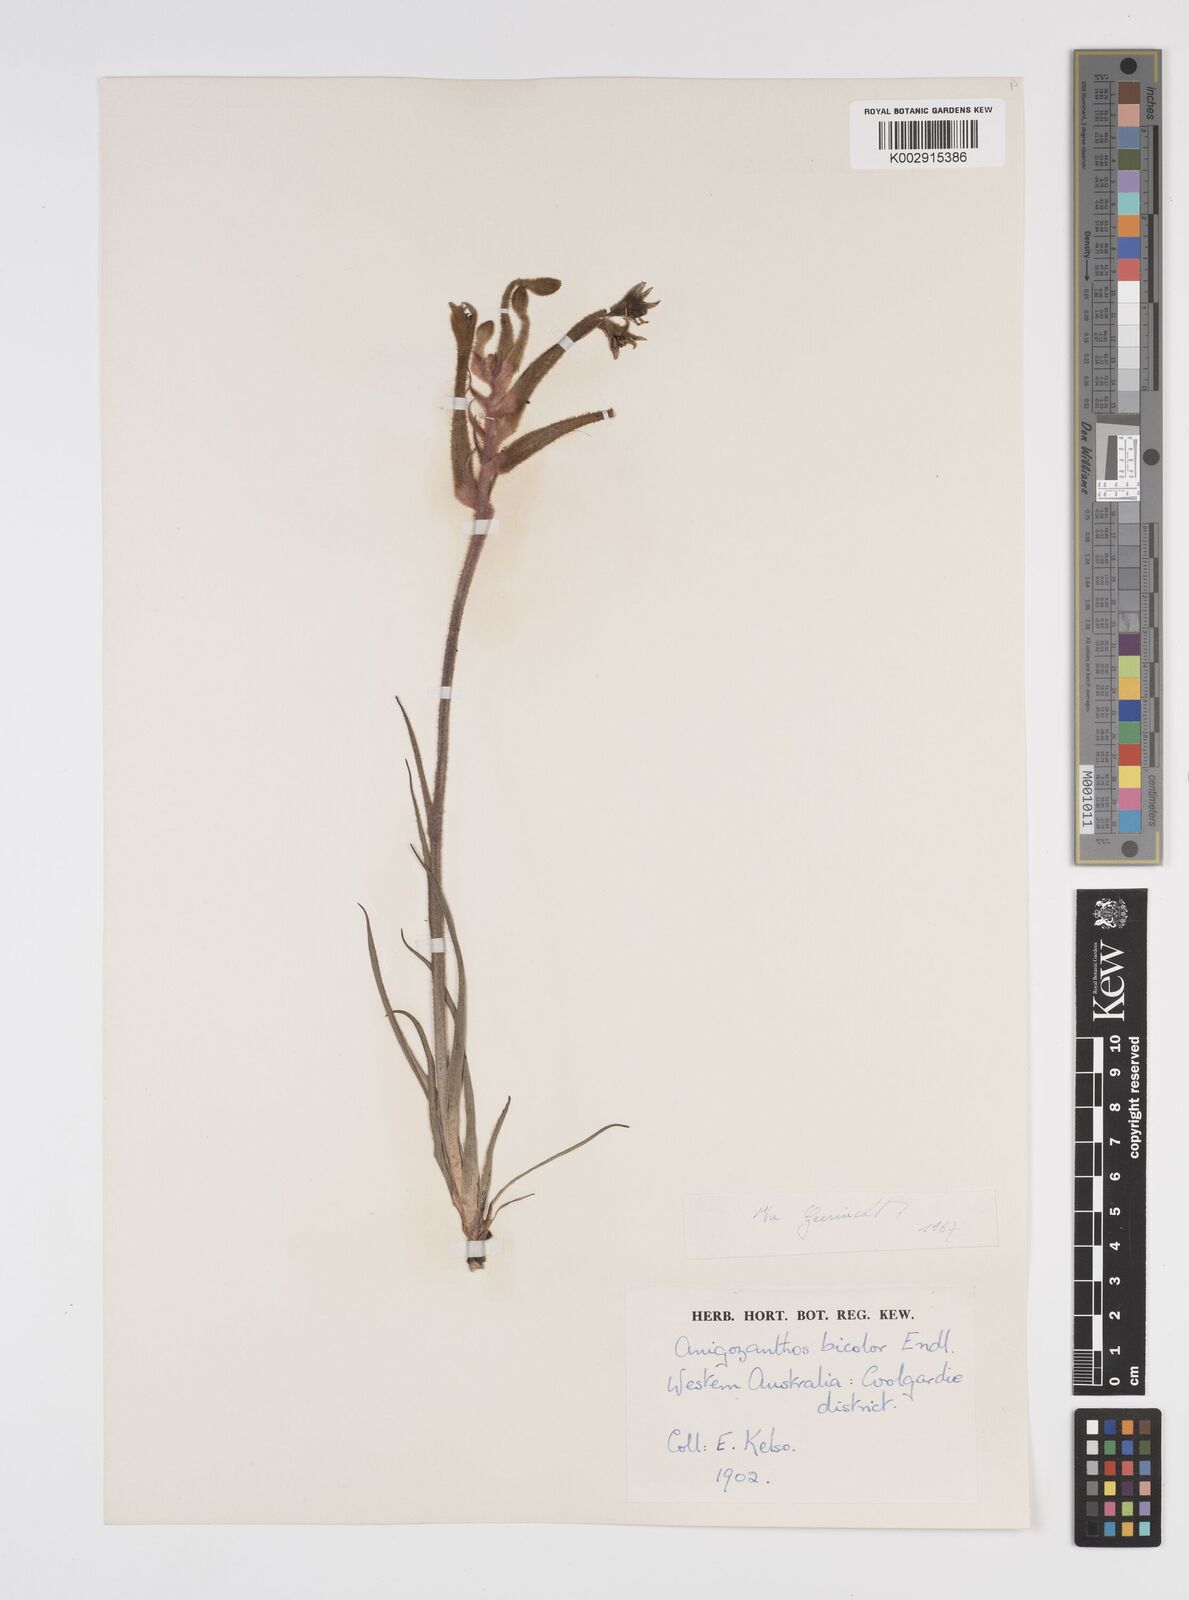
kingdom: Plantae
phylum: Tracheophyta
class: Liliopsida
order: Commelinales
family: Haemodoraceae
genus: Anigozanthos
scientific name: Anigozanthos bicolor
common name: Little kangaroo-paw
